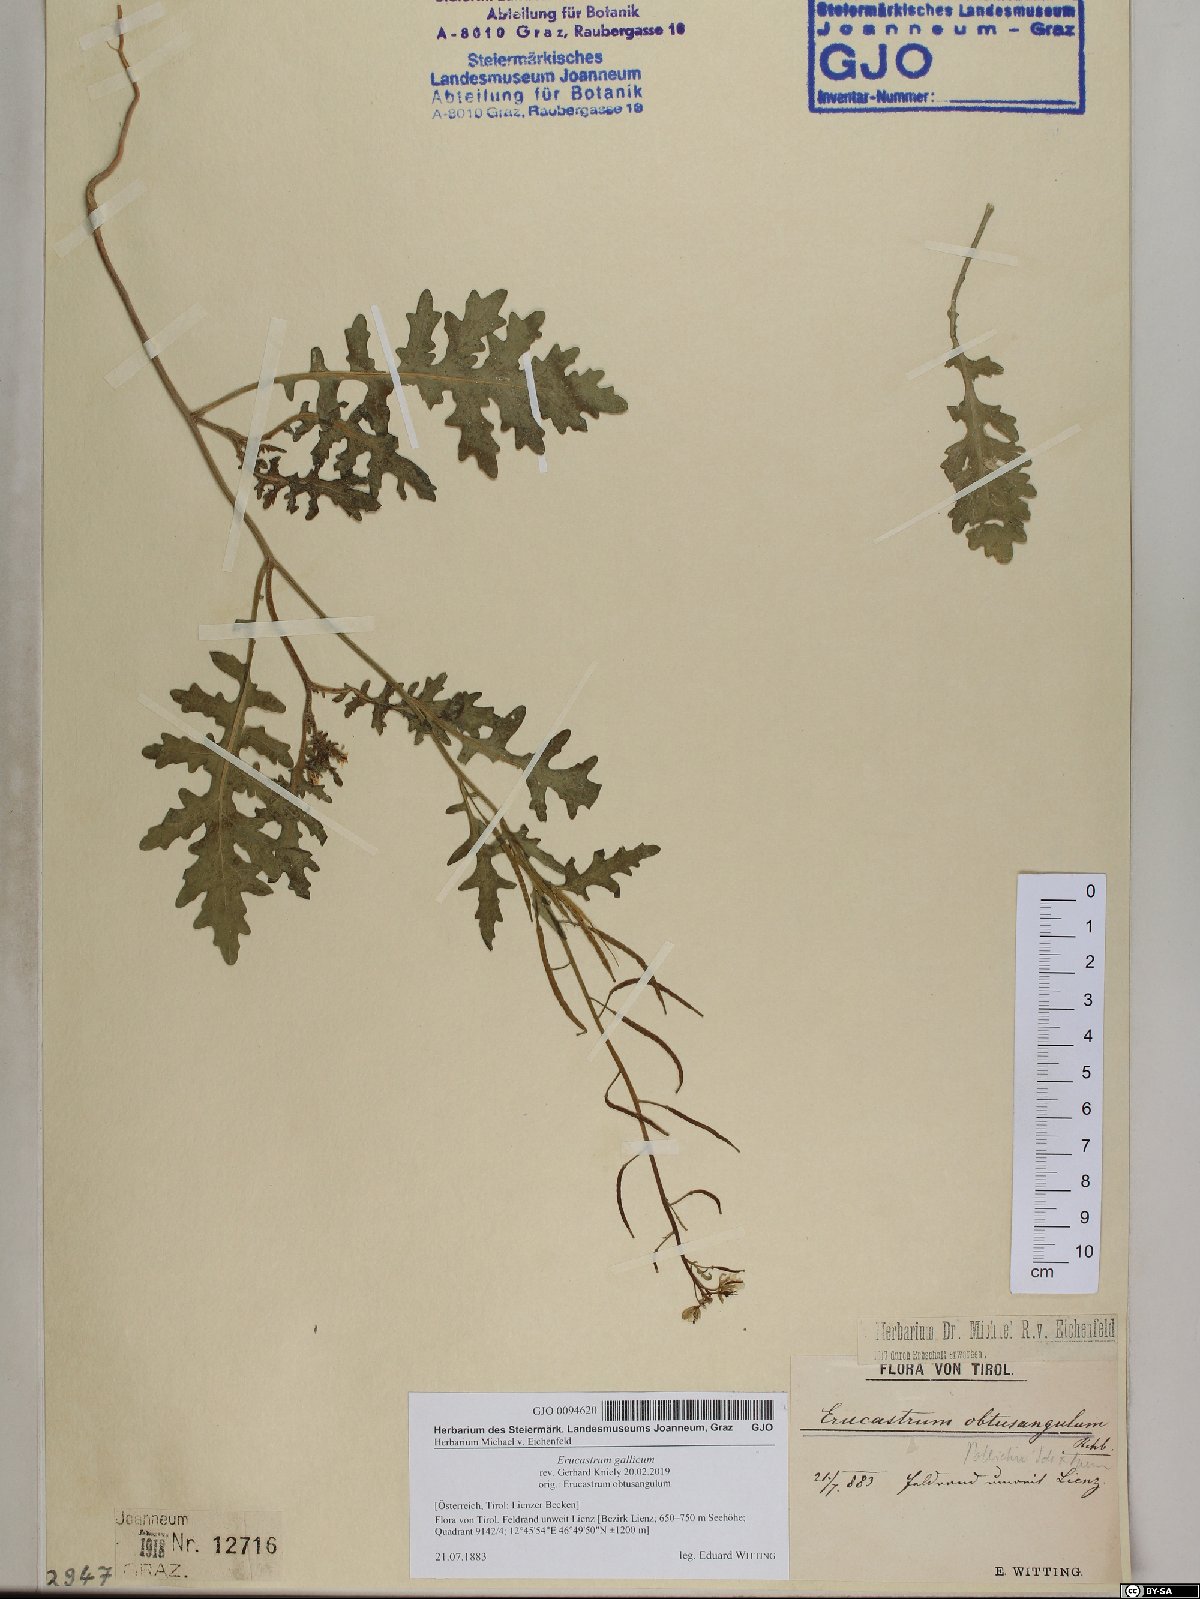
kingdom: Plantae
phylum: Tracheophyta
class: Magnoliopsida
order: Brassicales
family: Brassicaceae
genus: Erucastrum
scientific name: Erucastrum gallicum
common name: Hairy rocket
